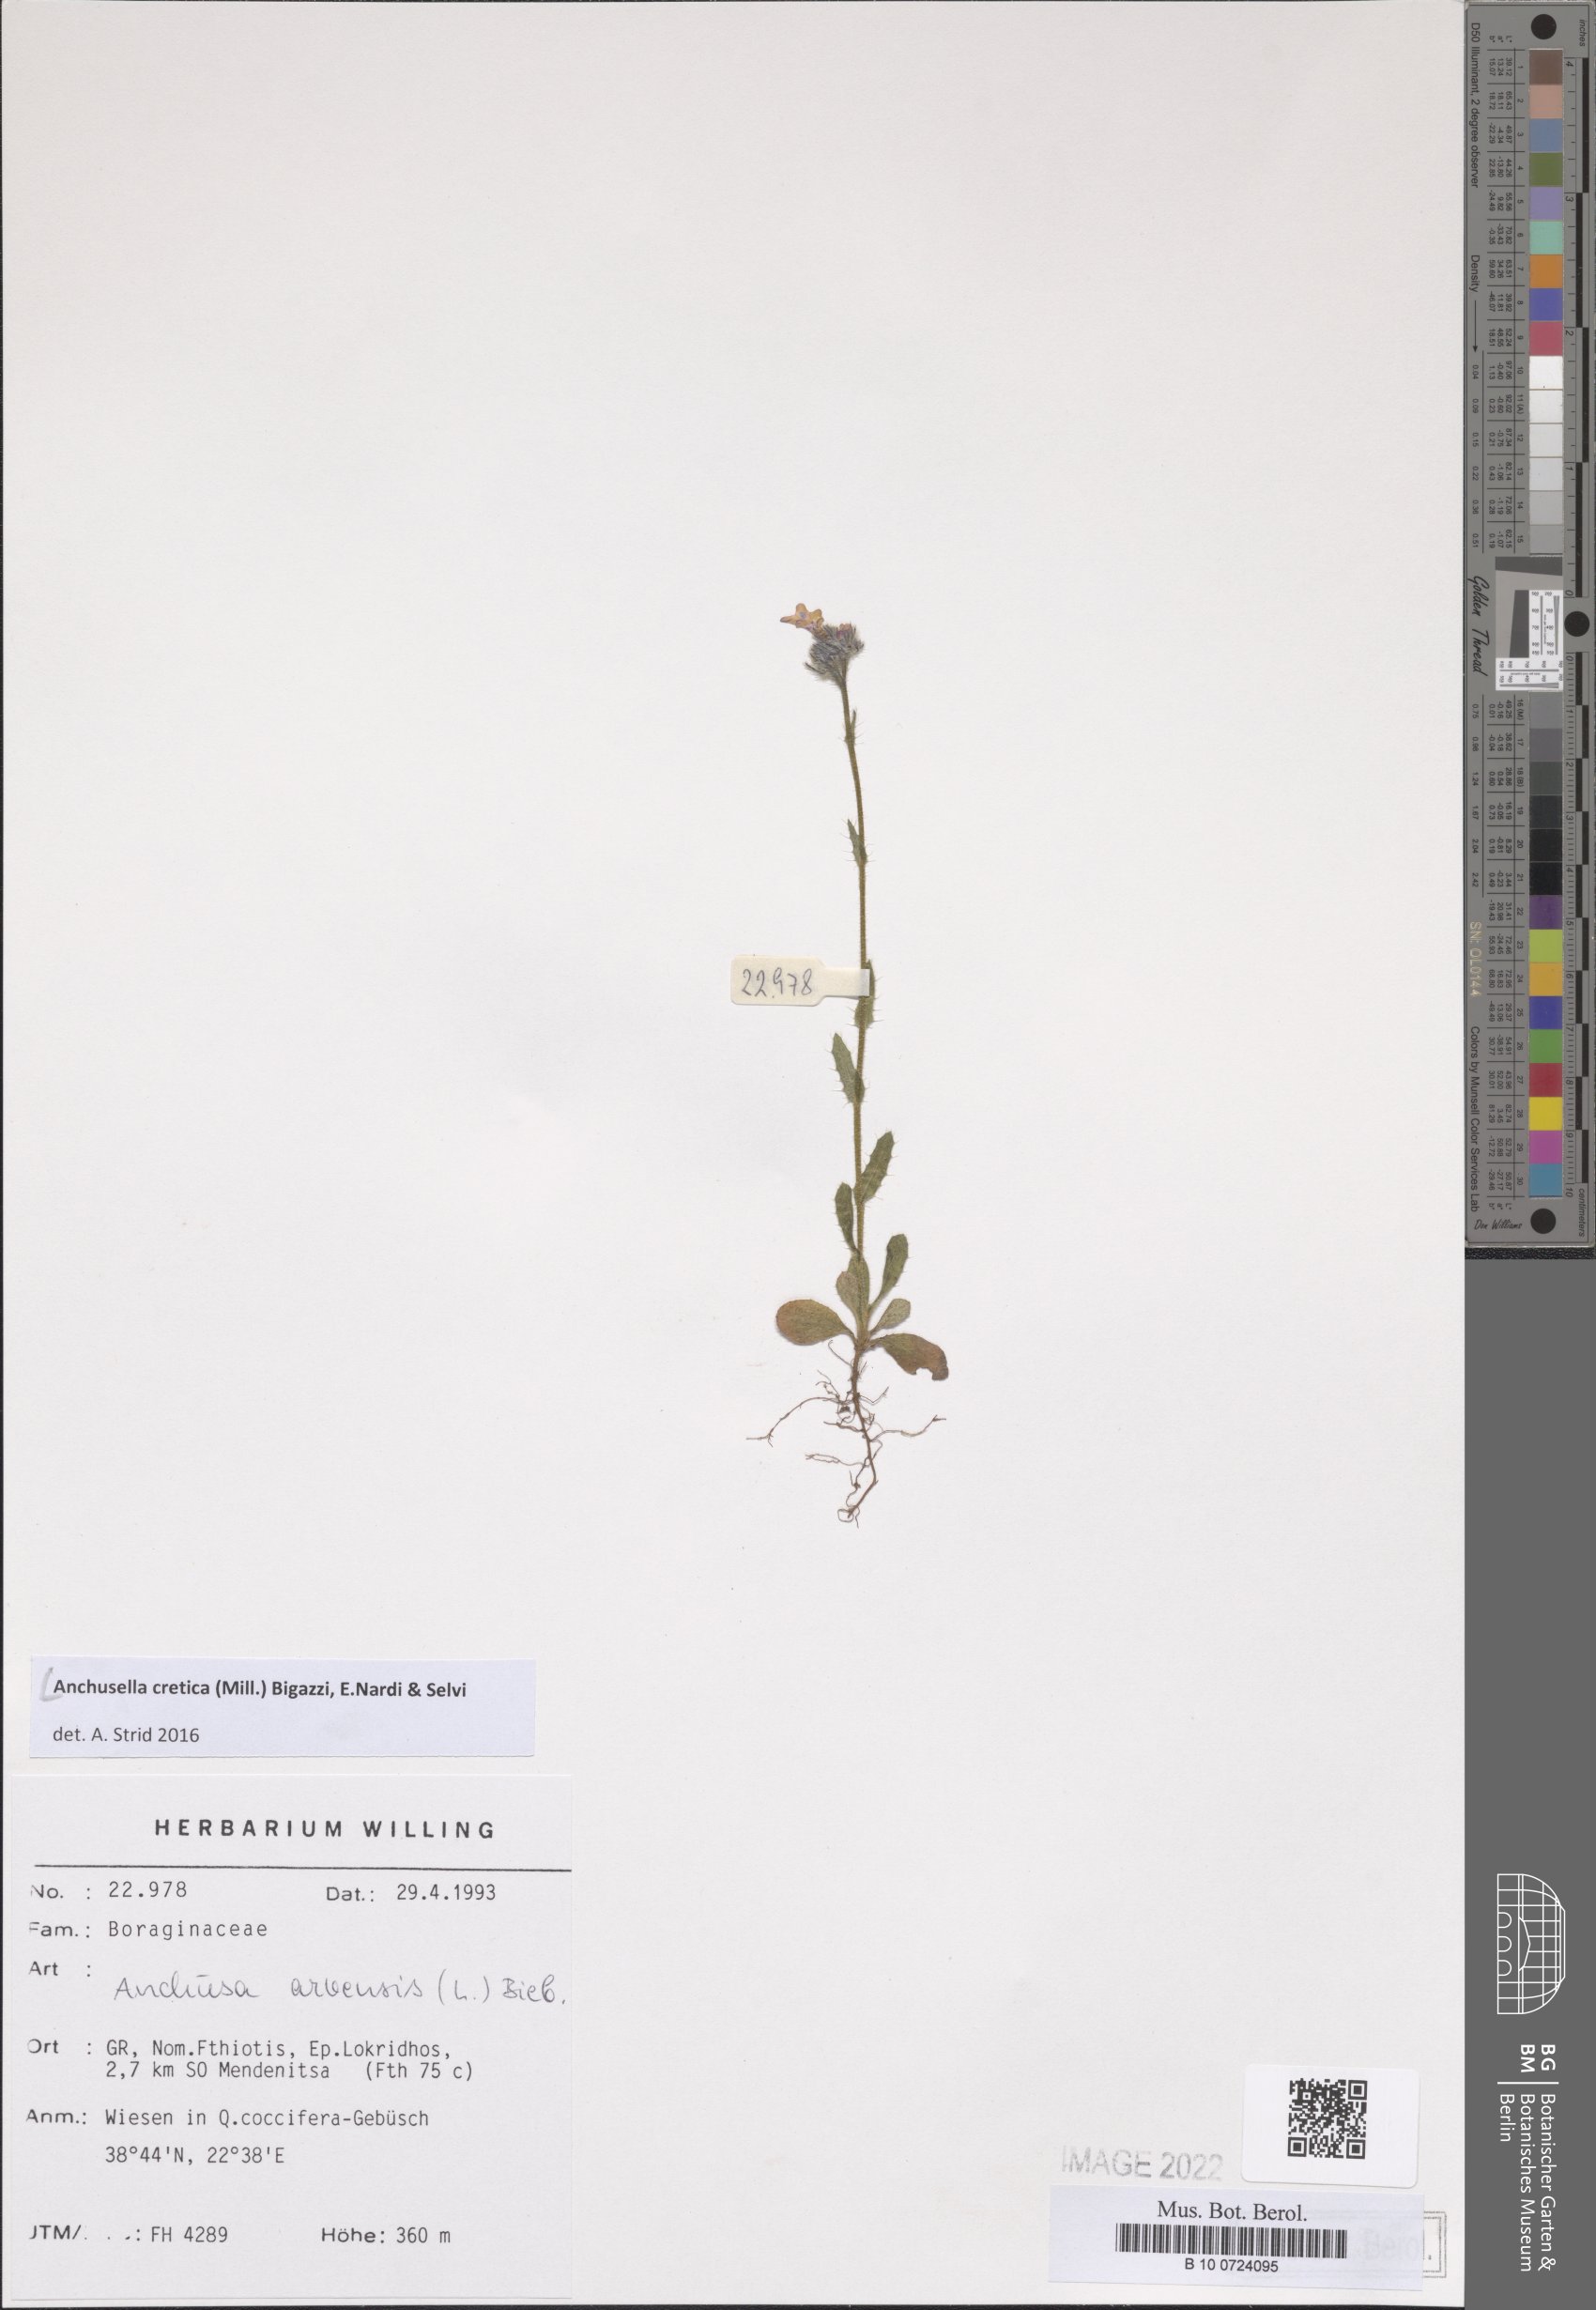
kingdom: Plantae
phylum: Tracheophyta
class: Magnoliopsida
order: Boraginales
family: Boraginaceae
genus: Anchusella
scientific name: Anchusella cretica
